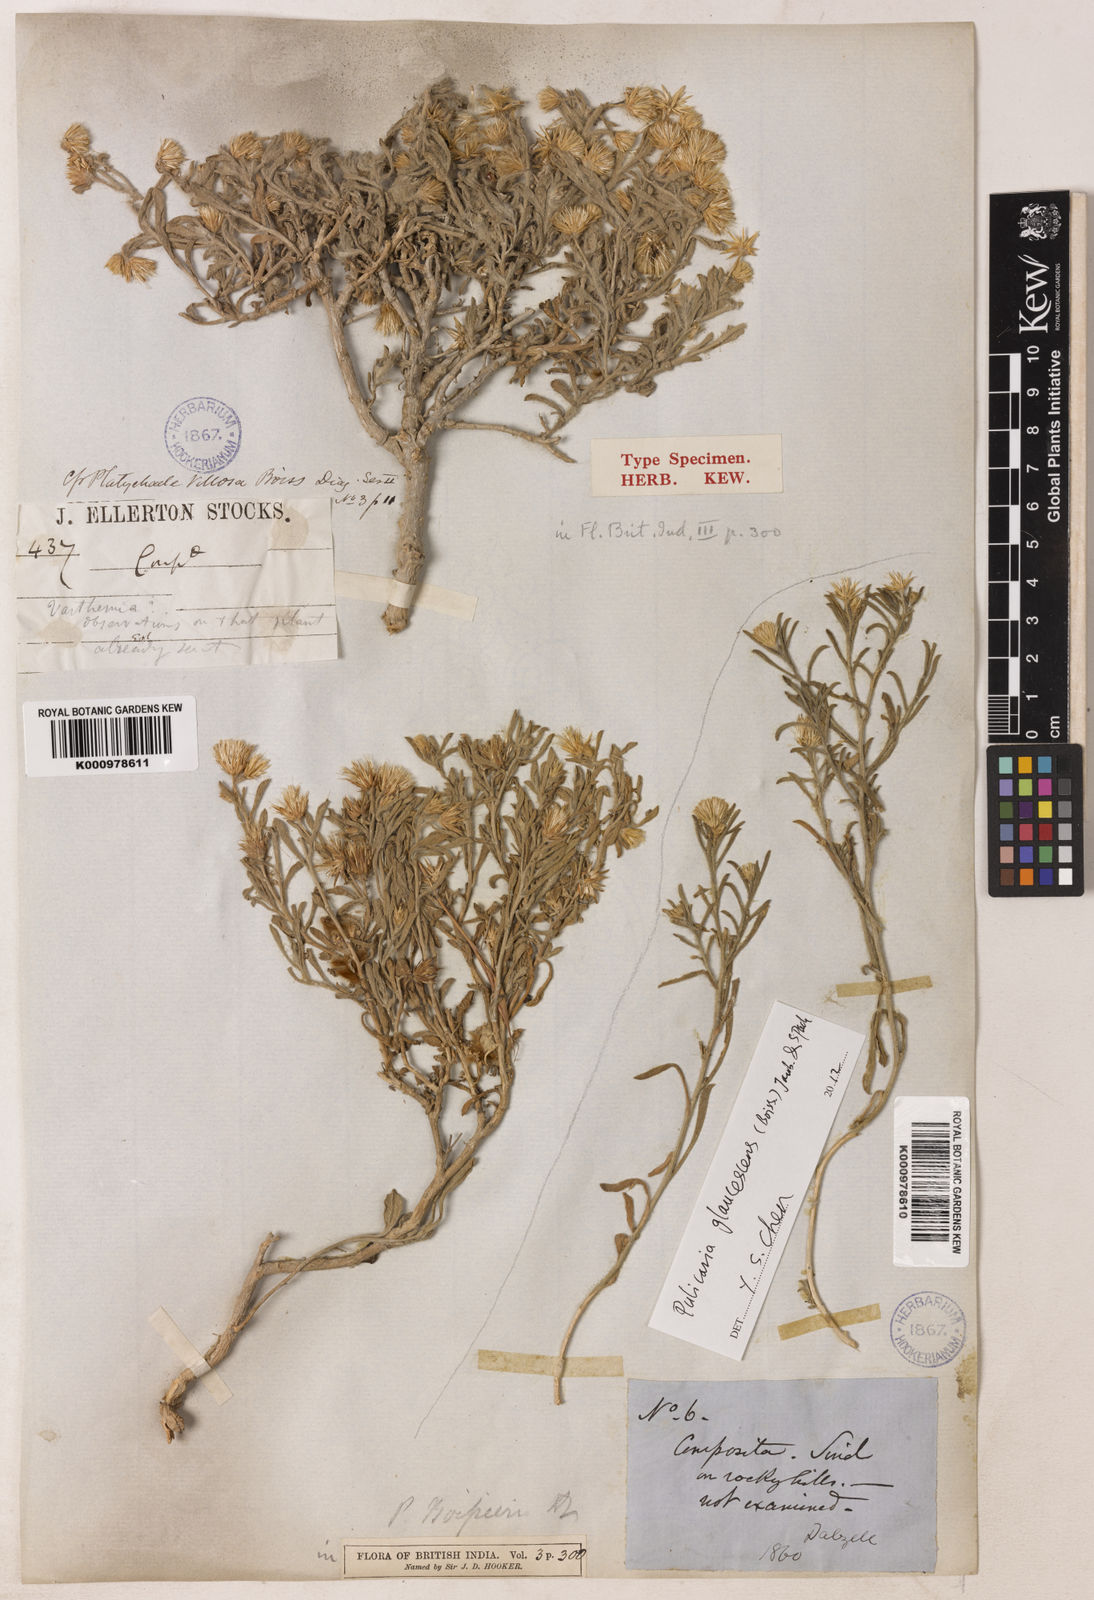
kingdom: Plantae
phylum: Tracheophyta
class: Magnoliopsida
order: Asterales
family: Asteraceae
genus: Pulicaria
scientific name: Pulicaria boissieri
